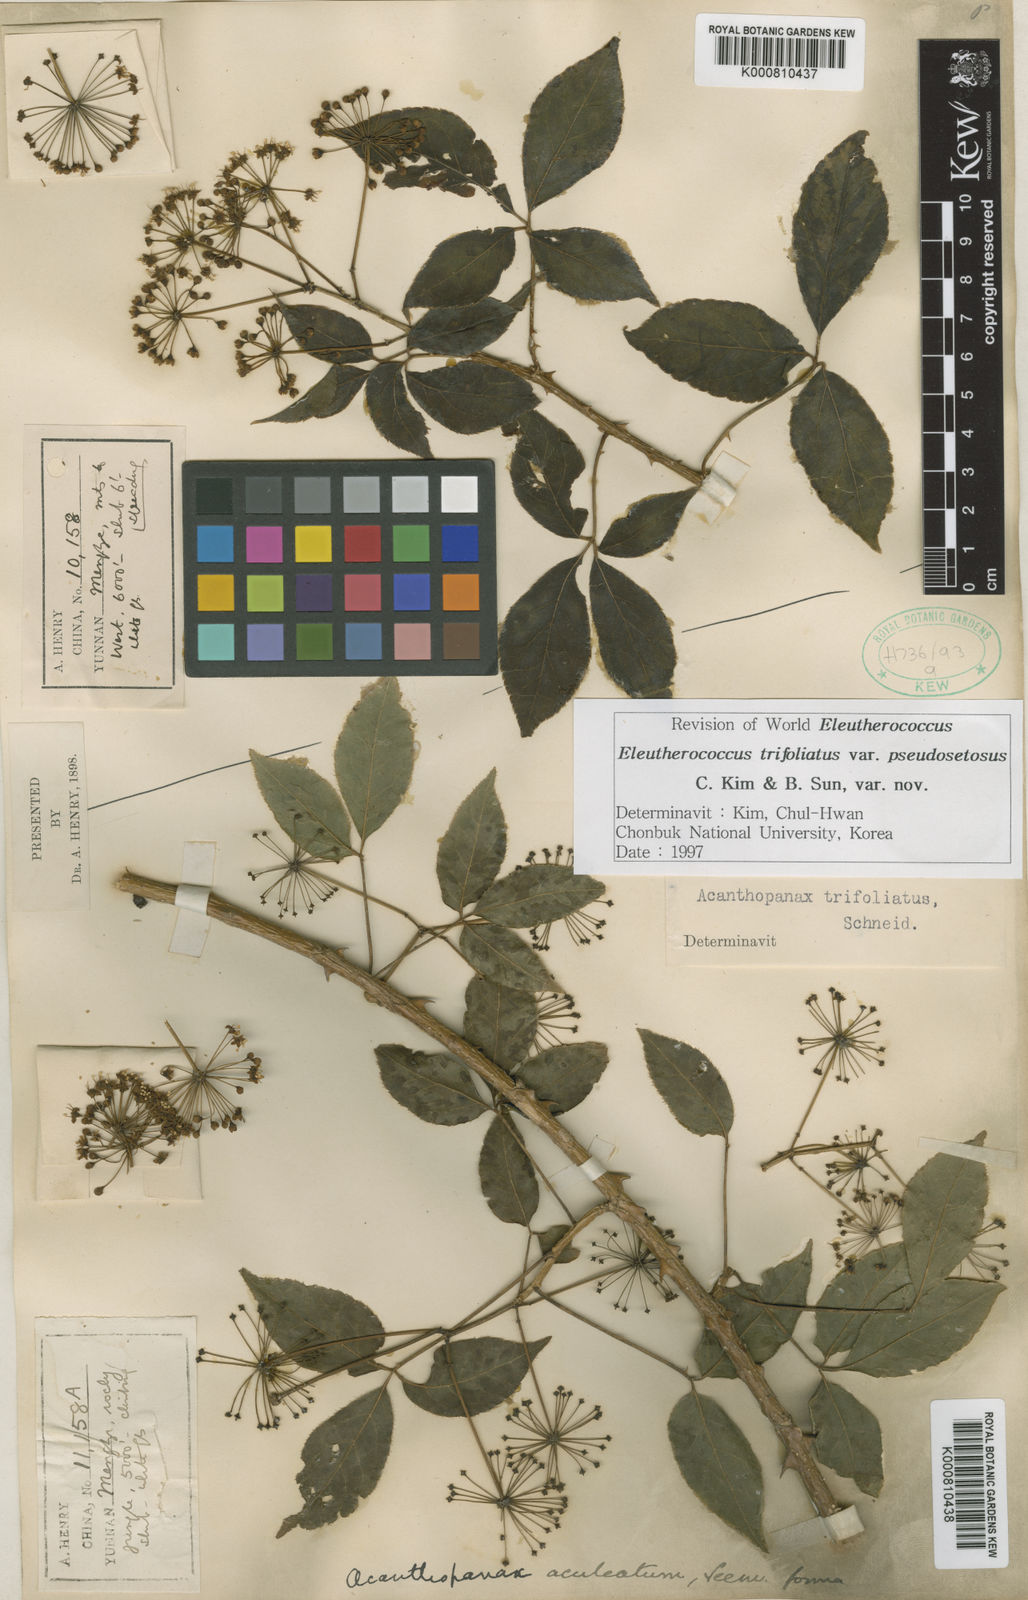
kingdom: Plantae
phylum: Tracheophyta
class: Magnoliopsida
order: Apiales
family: Araliaceae
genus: Eleutherococcus
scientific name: Eleutherococcus trifoliatus
